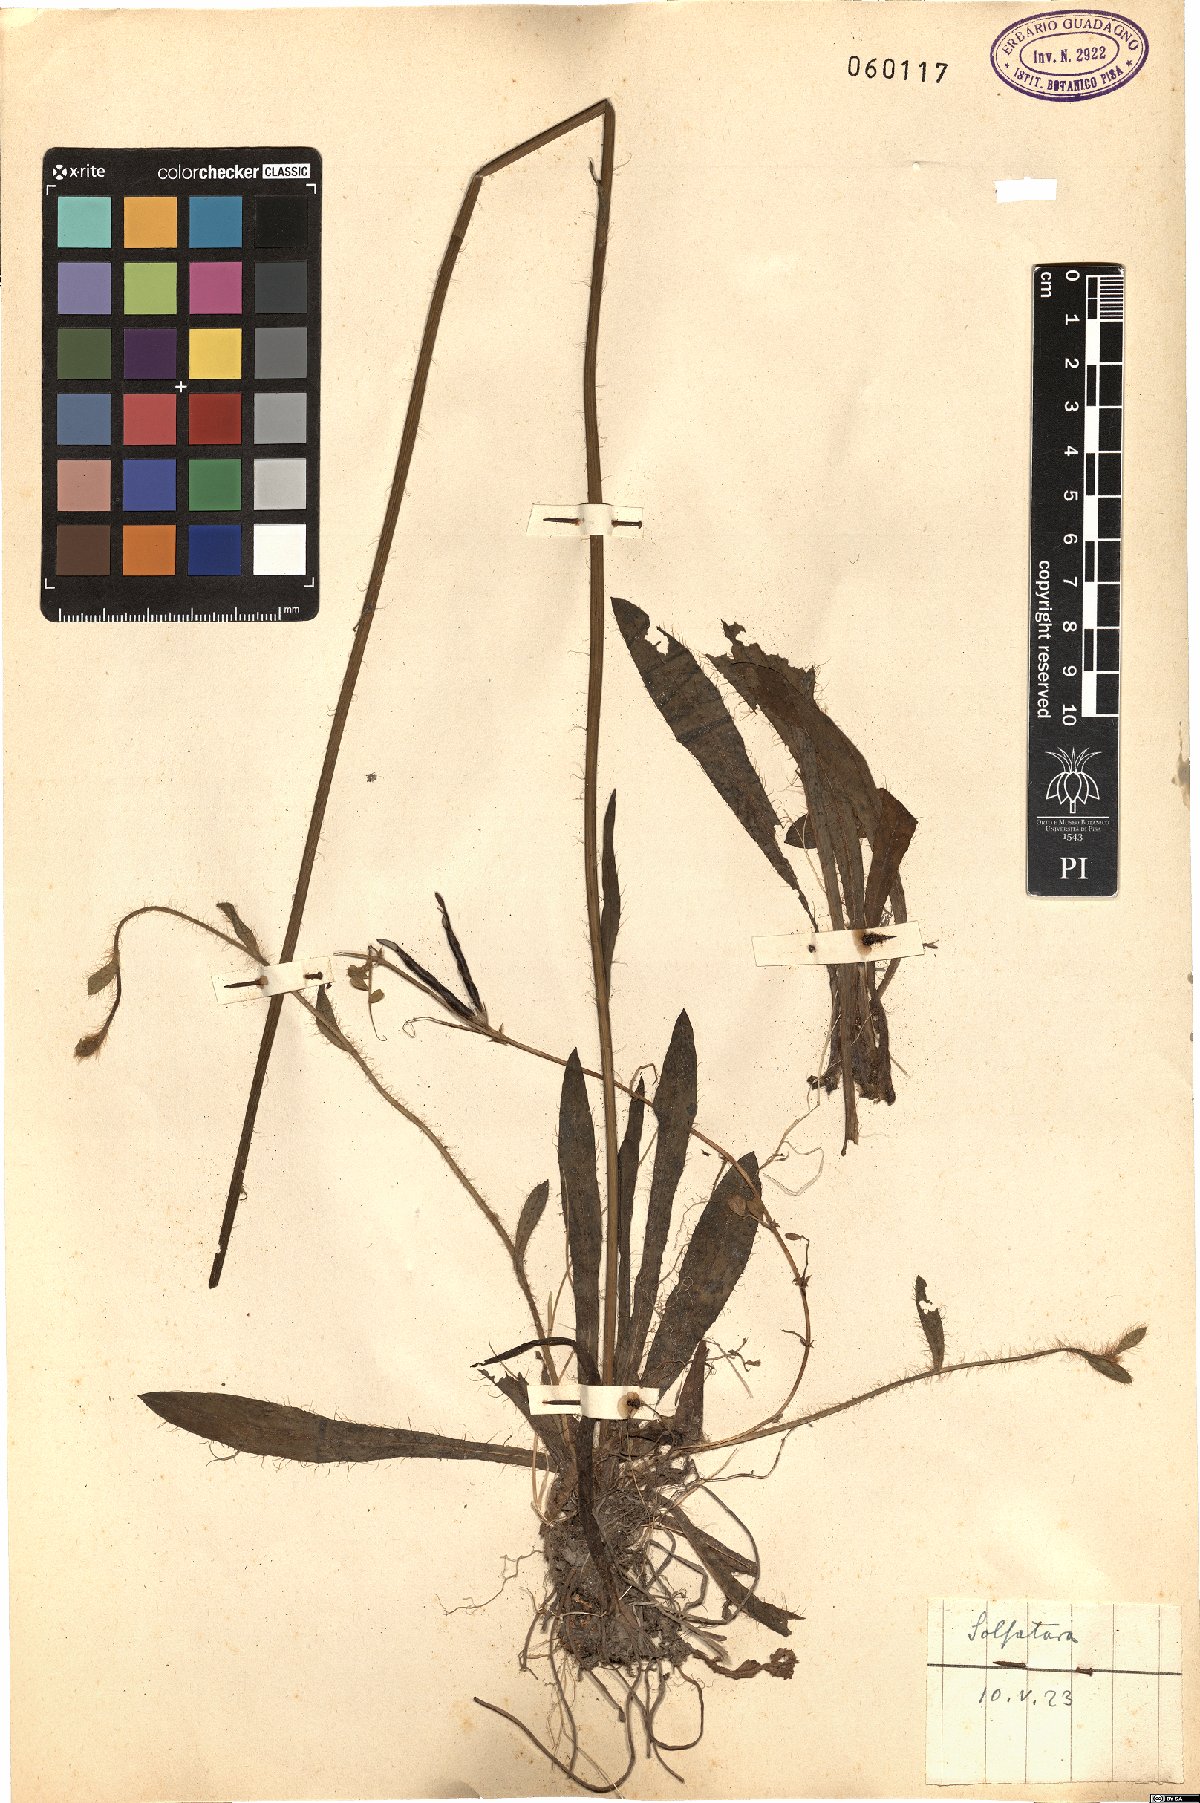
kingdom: Plantae
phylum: Tracheophyta
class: Magnoliopsida
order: Asterales
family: Asteraceae
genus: Pilosella
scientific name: Pilosella
